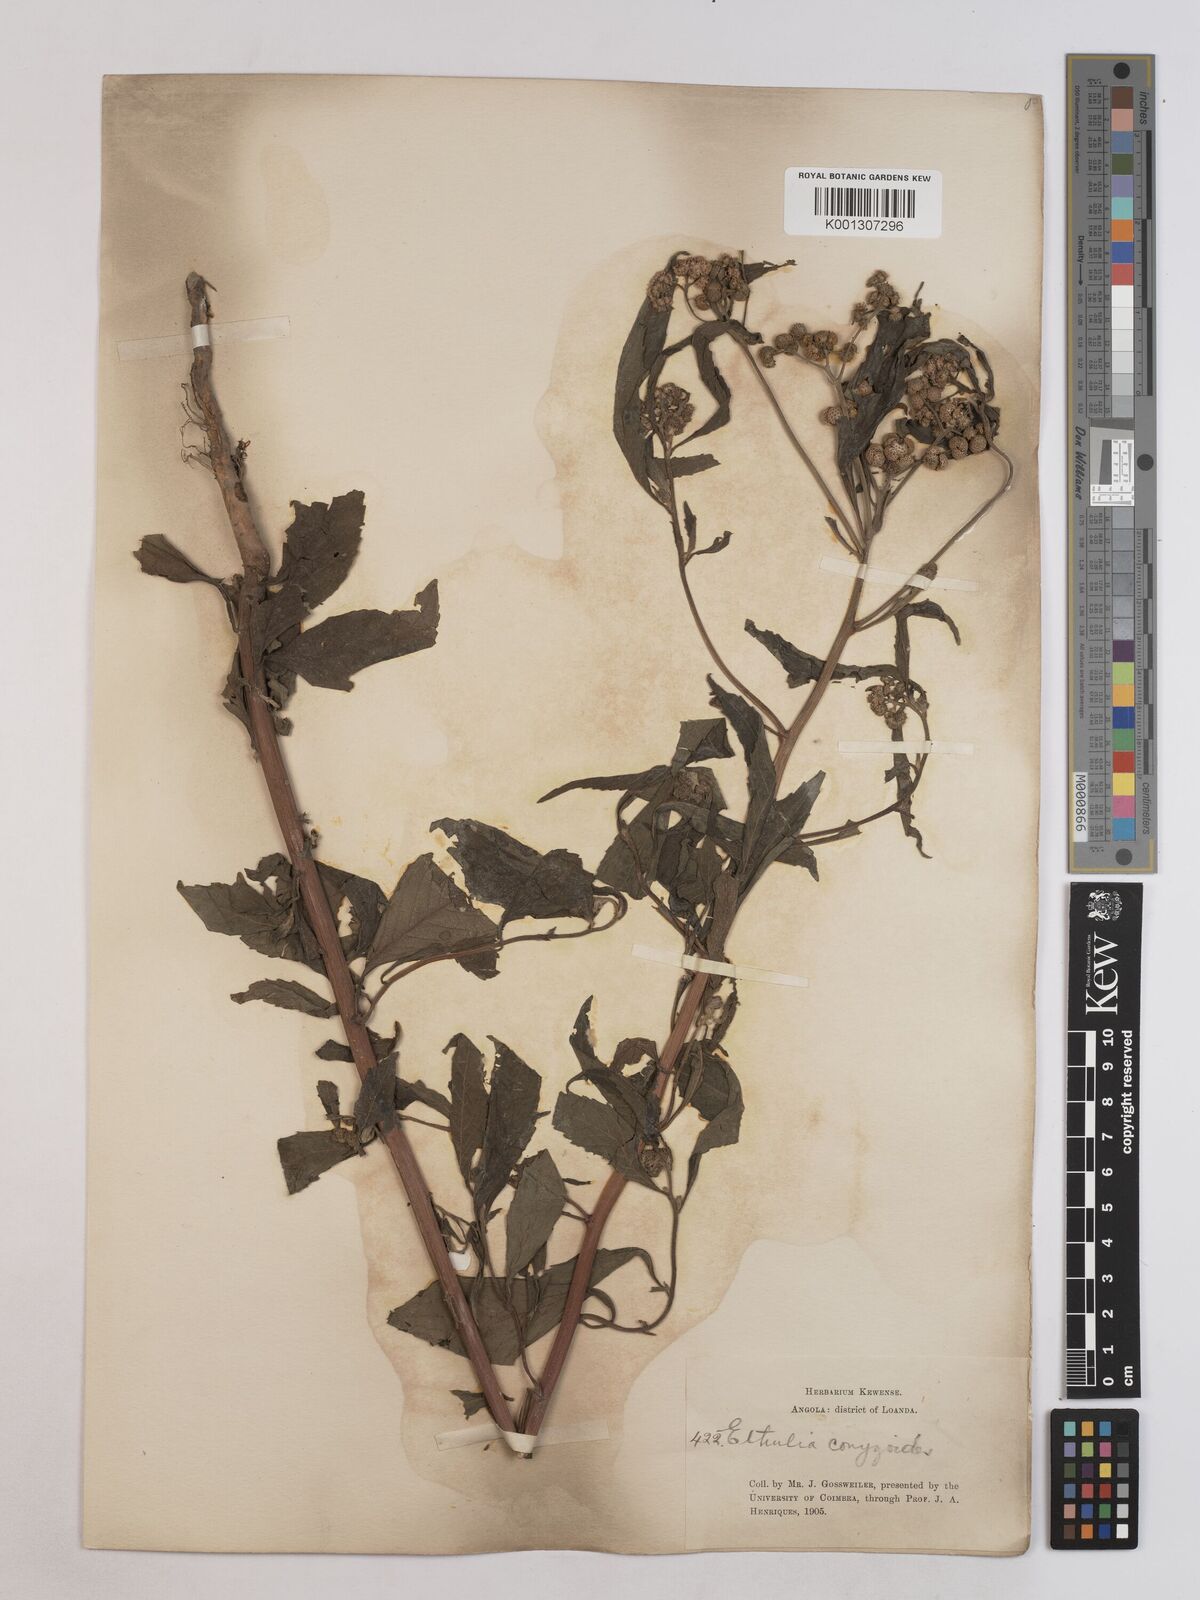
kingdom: Plantae
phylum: Tracheophyta
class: Magnoliopsida
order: Asterales
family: Asteraceae
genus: Ethulia
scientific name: Ethulia conyzoides
